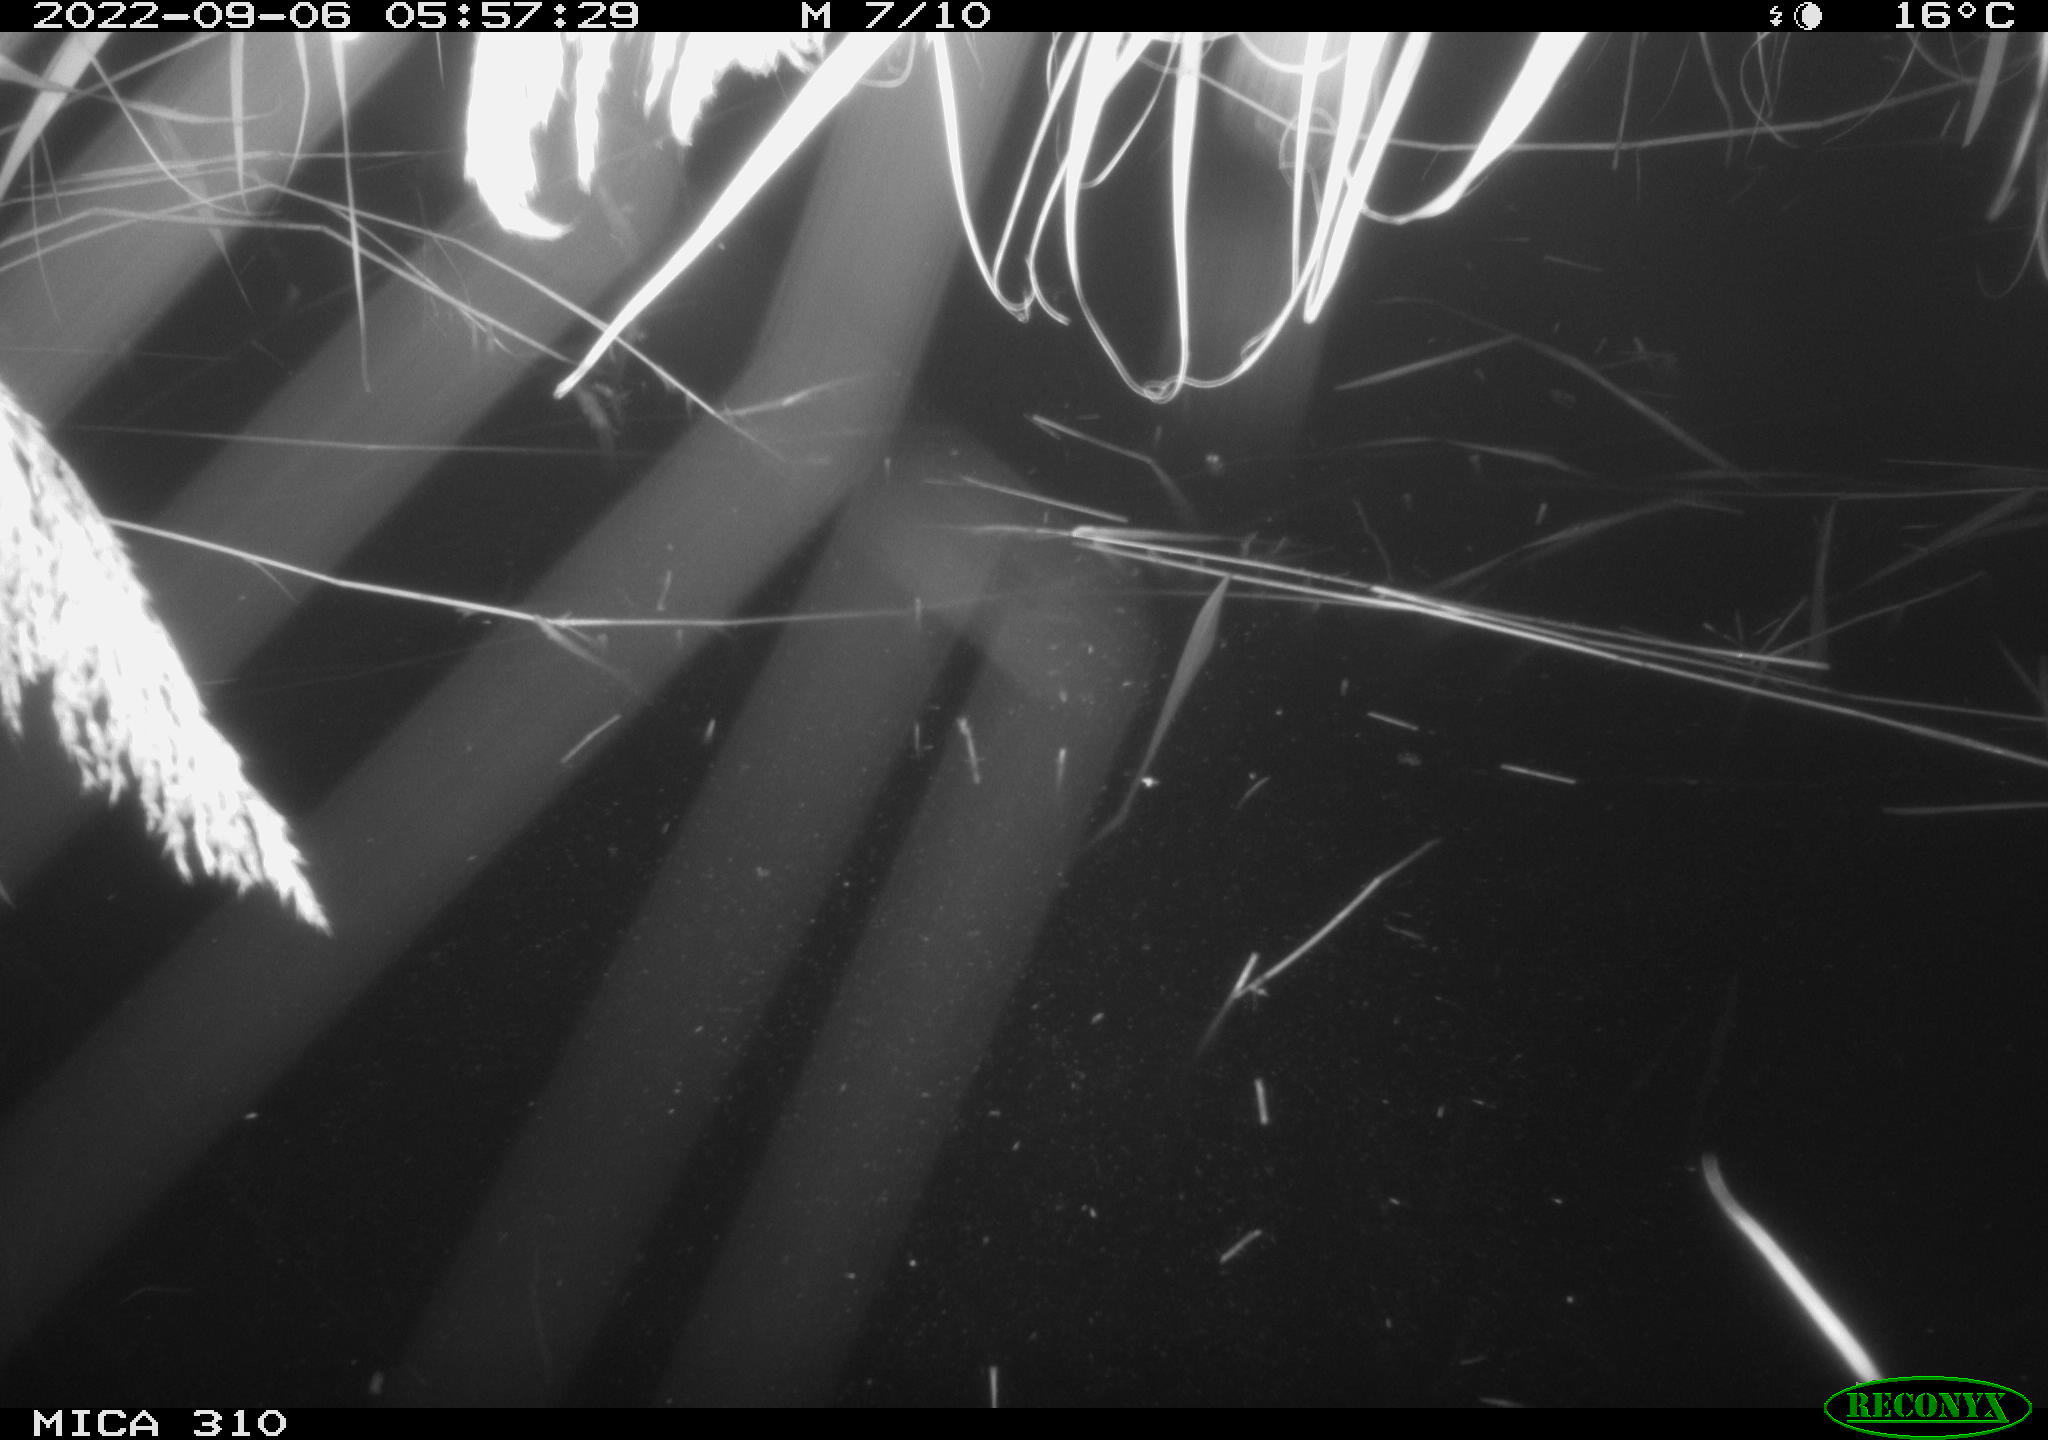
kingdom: Animalia
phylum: Chordata
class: Aves
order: Anseriformes
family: Anatidae
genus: Anas
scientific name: Anas platyrhynchos
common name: Mallard
